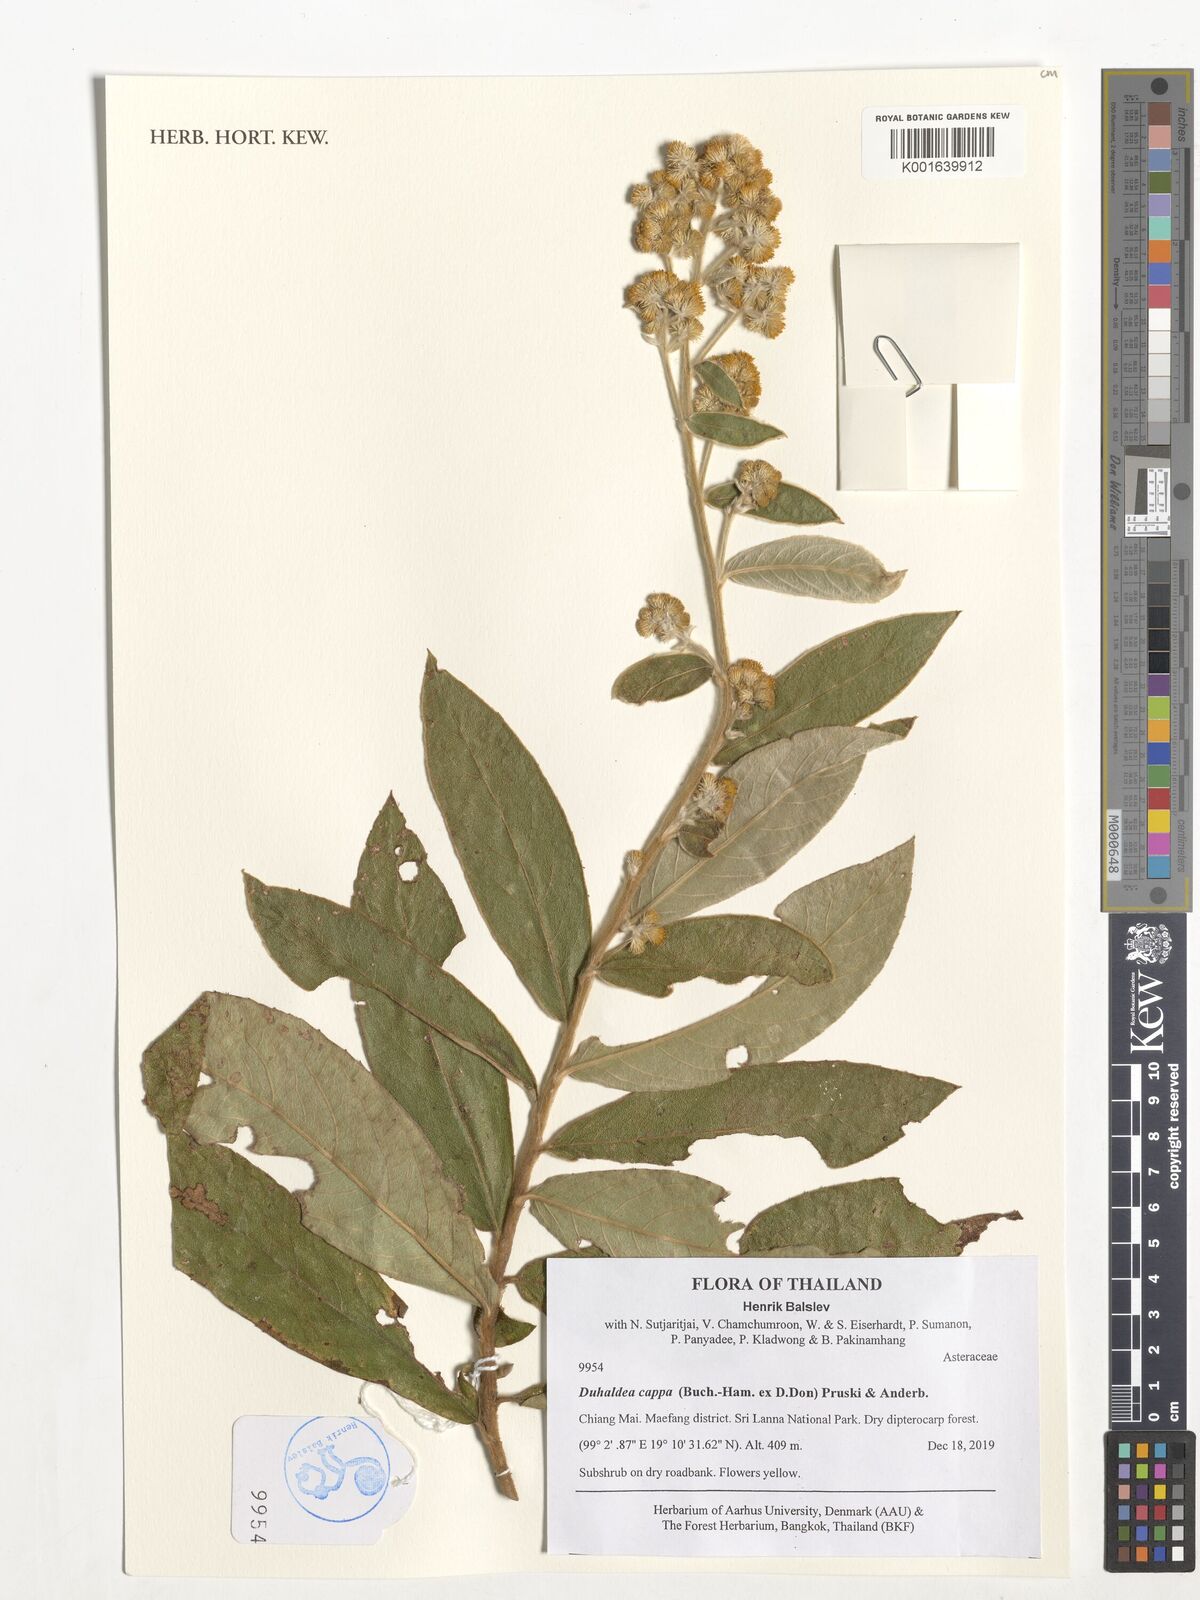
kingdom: Plantae
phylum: Tracheophyta
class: Magnoliopsida
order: Asterales
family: Asteraceae
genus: Duhaldea
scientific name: Duhaldea cappa
